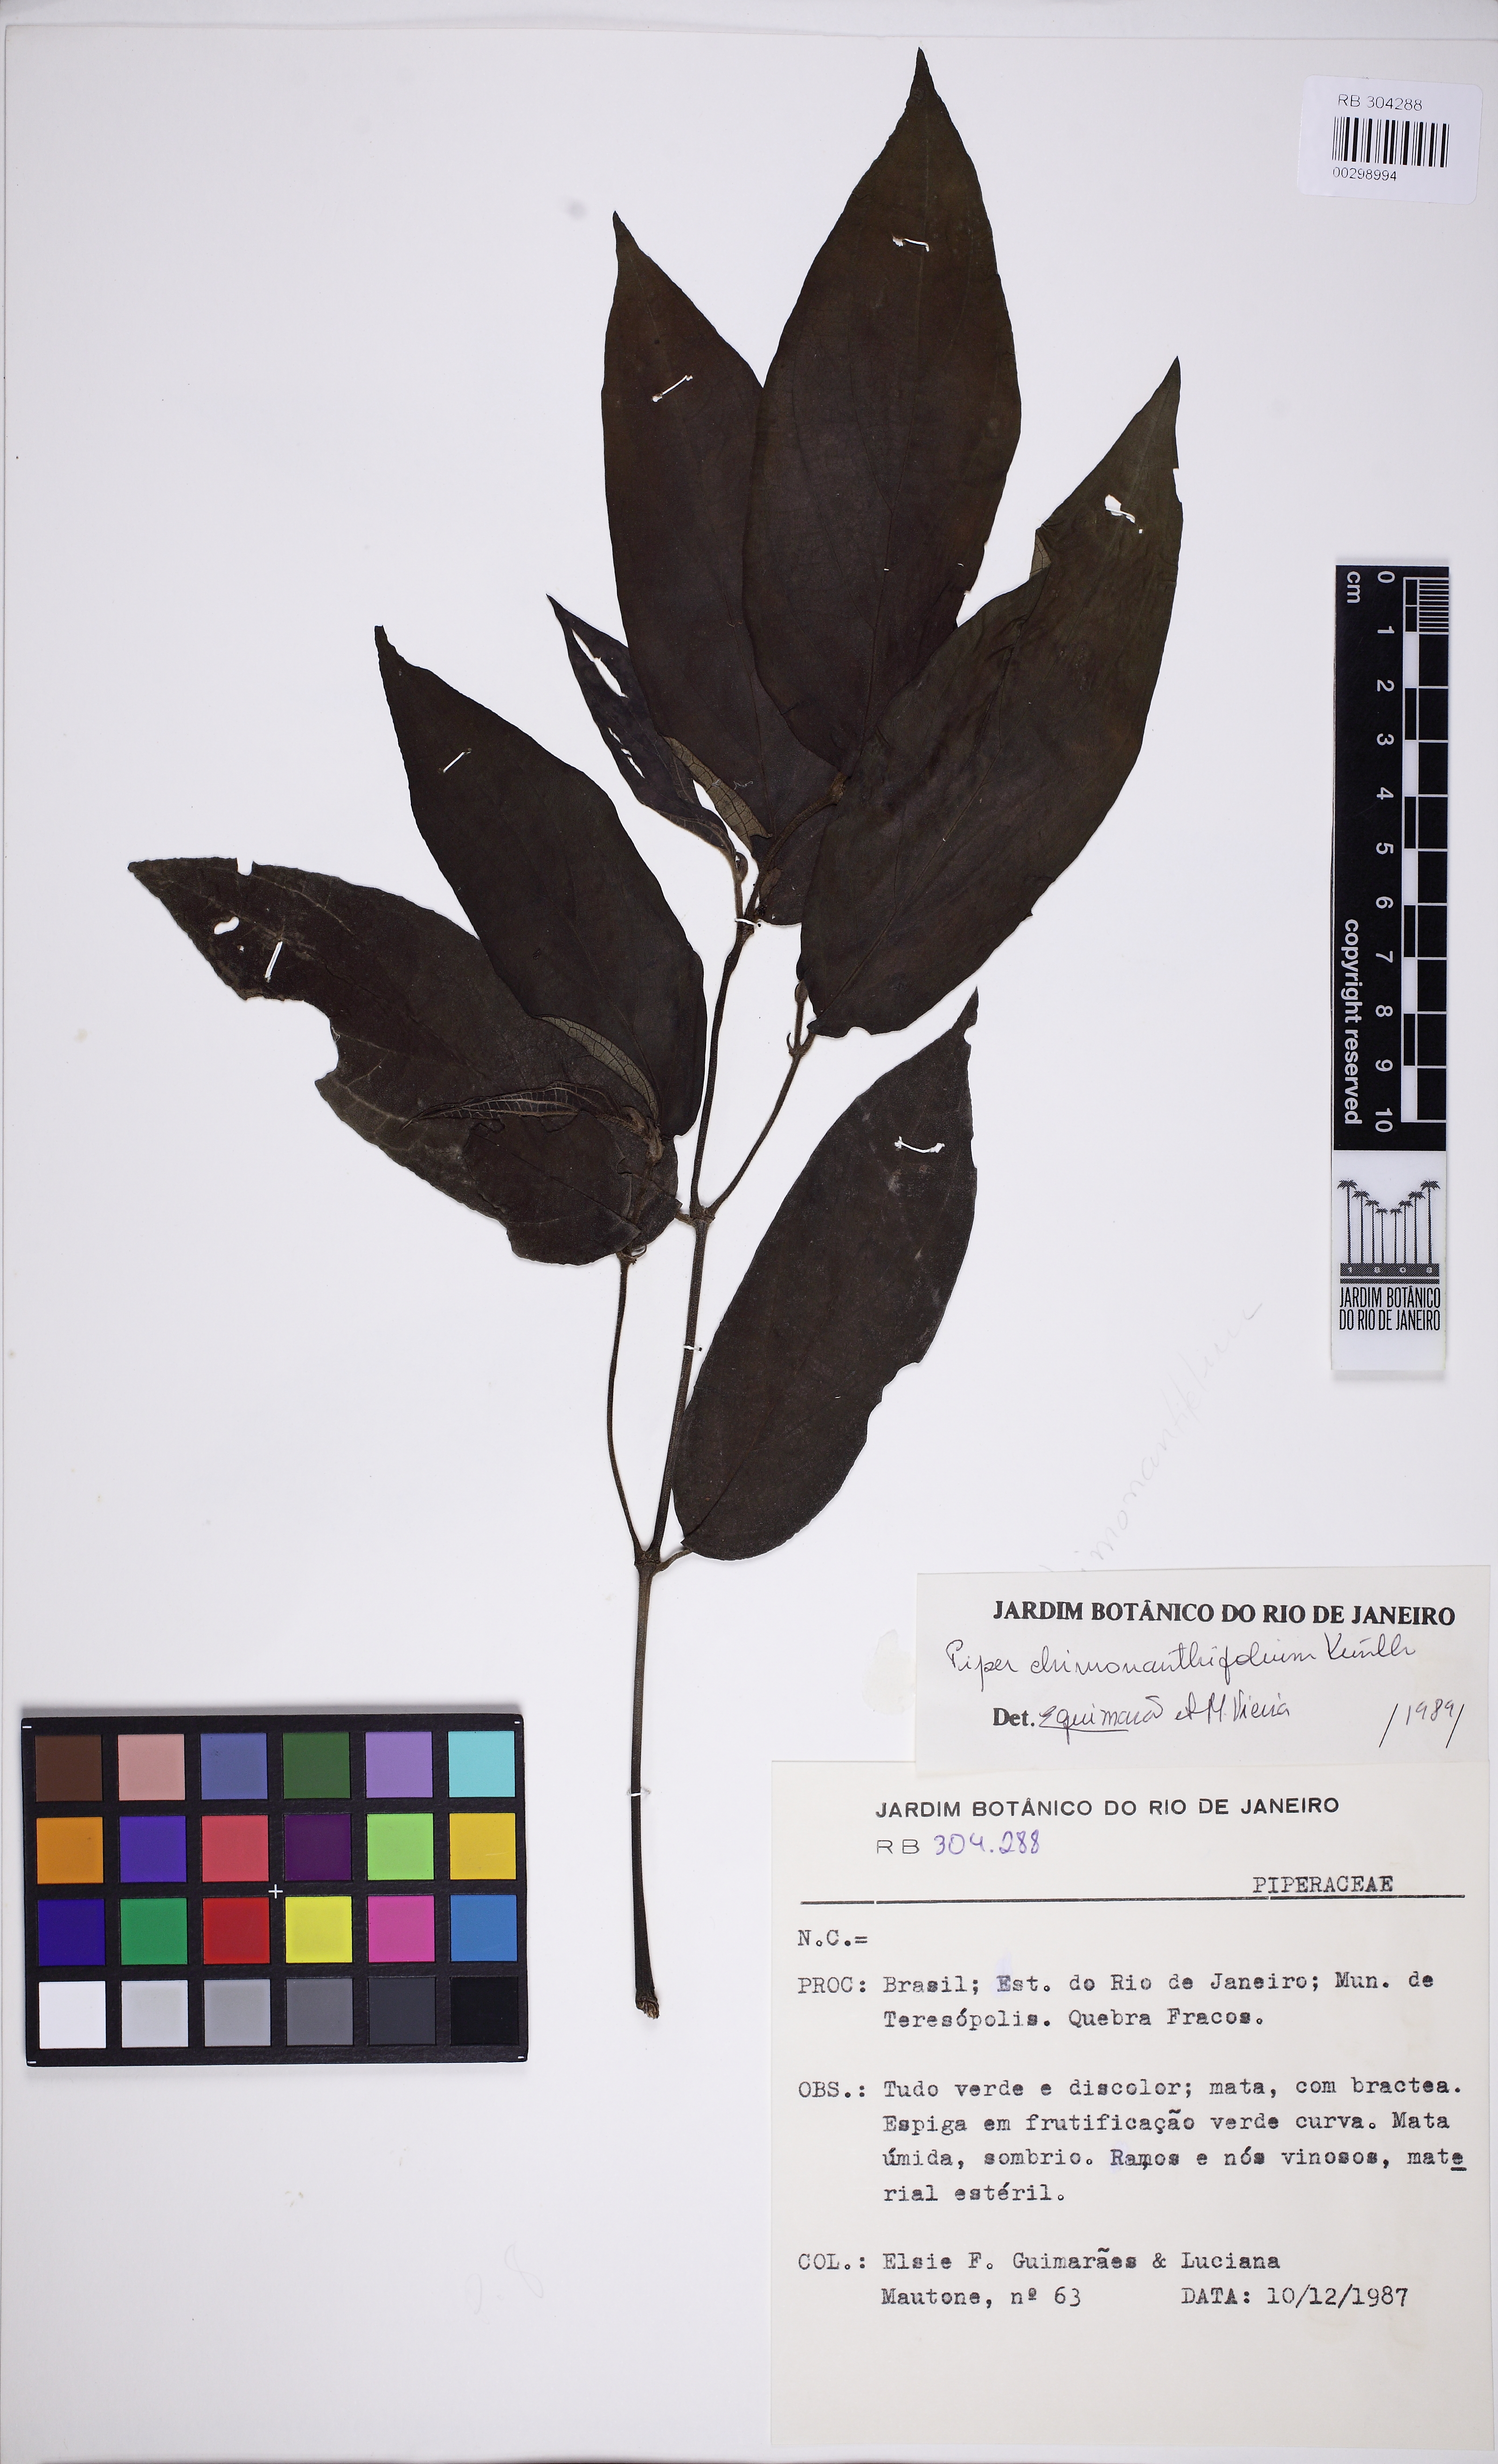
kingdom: Plantae
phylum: Tracheophyta
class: Magnoliopsida
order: Piperales
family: Piperaceae
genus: Piper
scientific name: Piper chimonanthifolium
